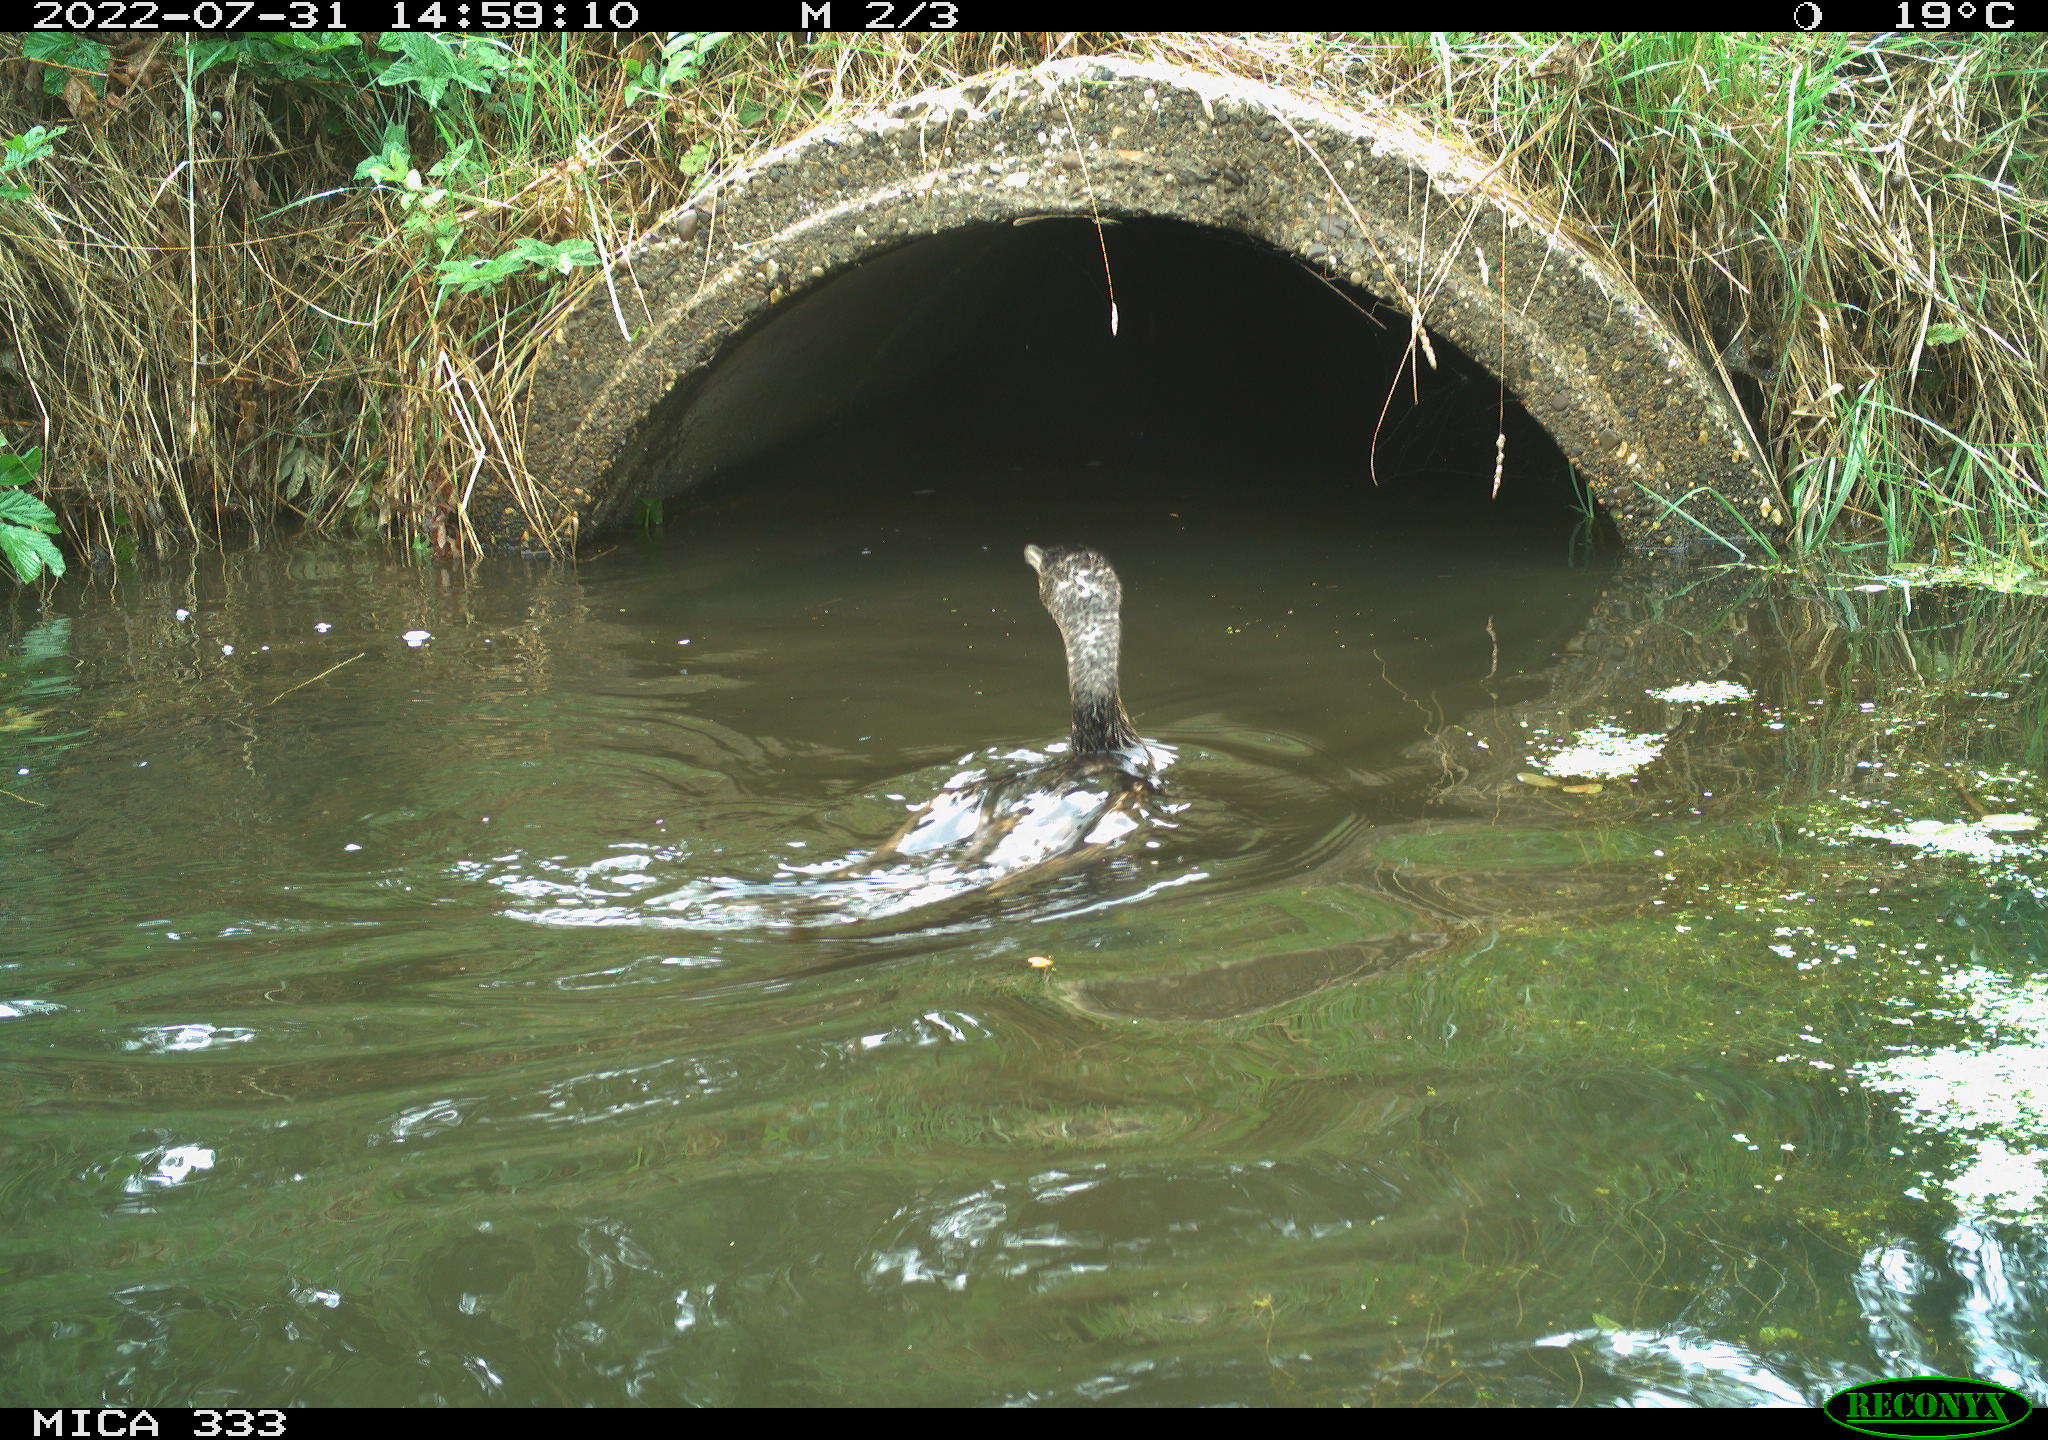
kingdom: Animalia
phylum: Chordata
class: Aves
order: Suliformes
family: Phalacrocoracidae
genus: Phalacrocorax
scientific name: Phalacrocorax carbo
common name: Great cormorant
